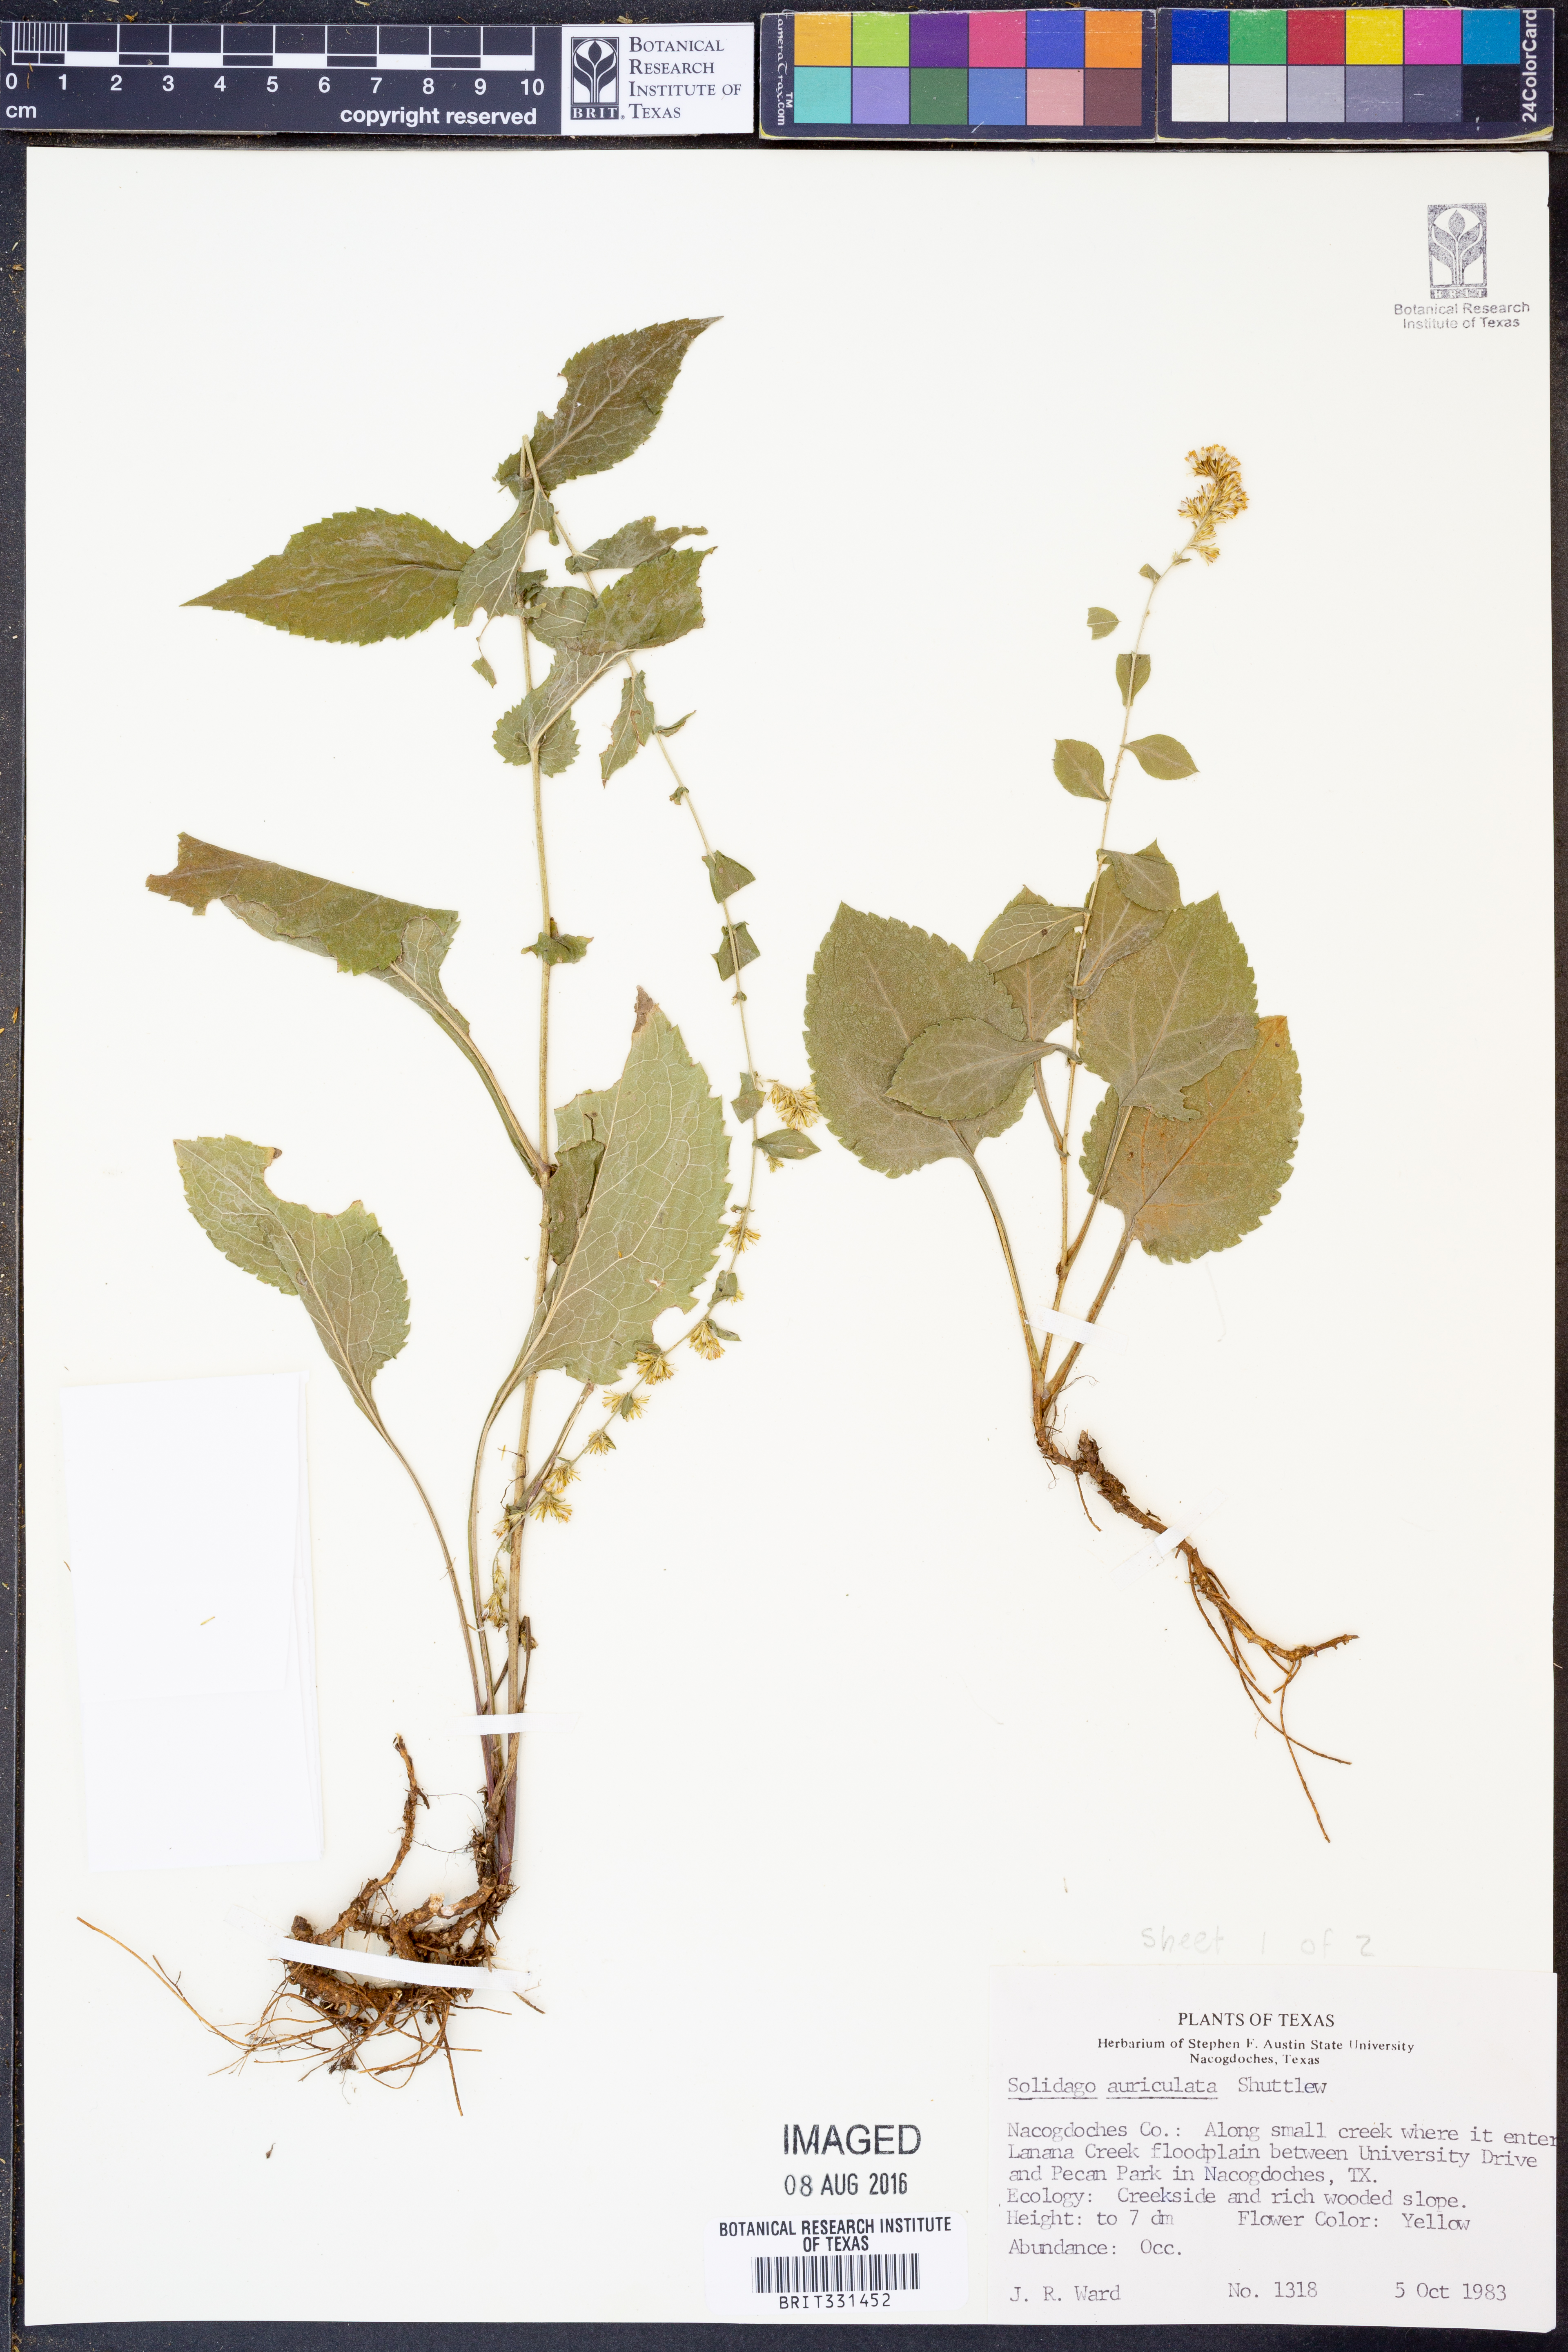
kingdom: Plantae
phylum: Tracheophyta
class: Magnoliopsida
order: Asterales
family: Asteraceae
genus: Solidago
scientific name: Solidago auriculata
